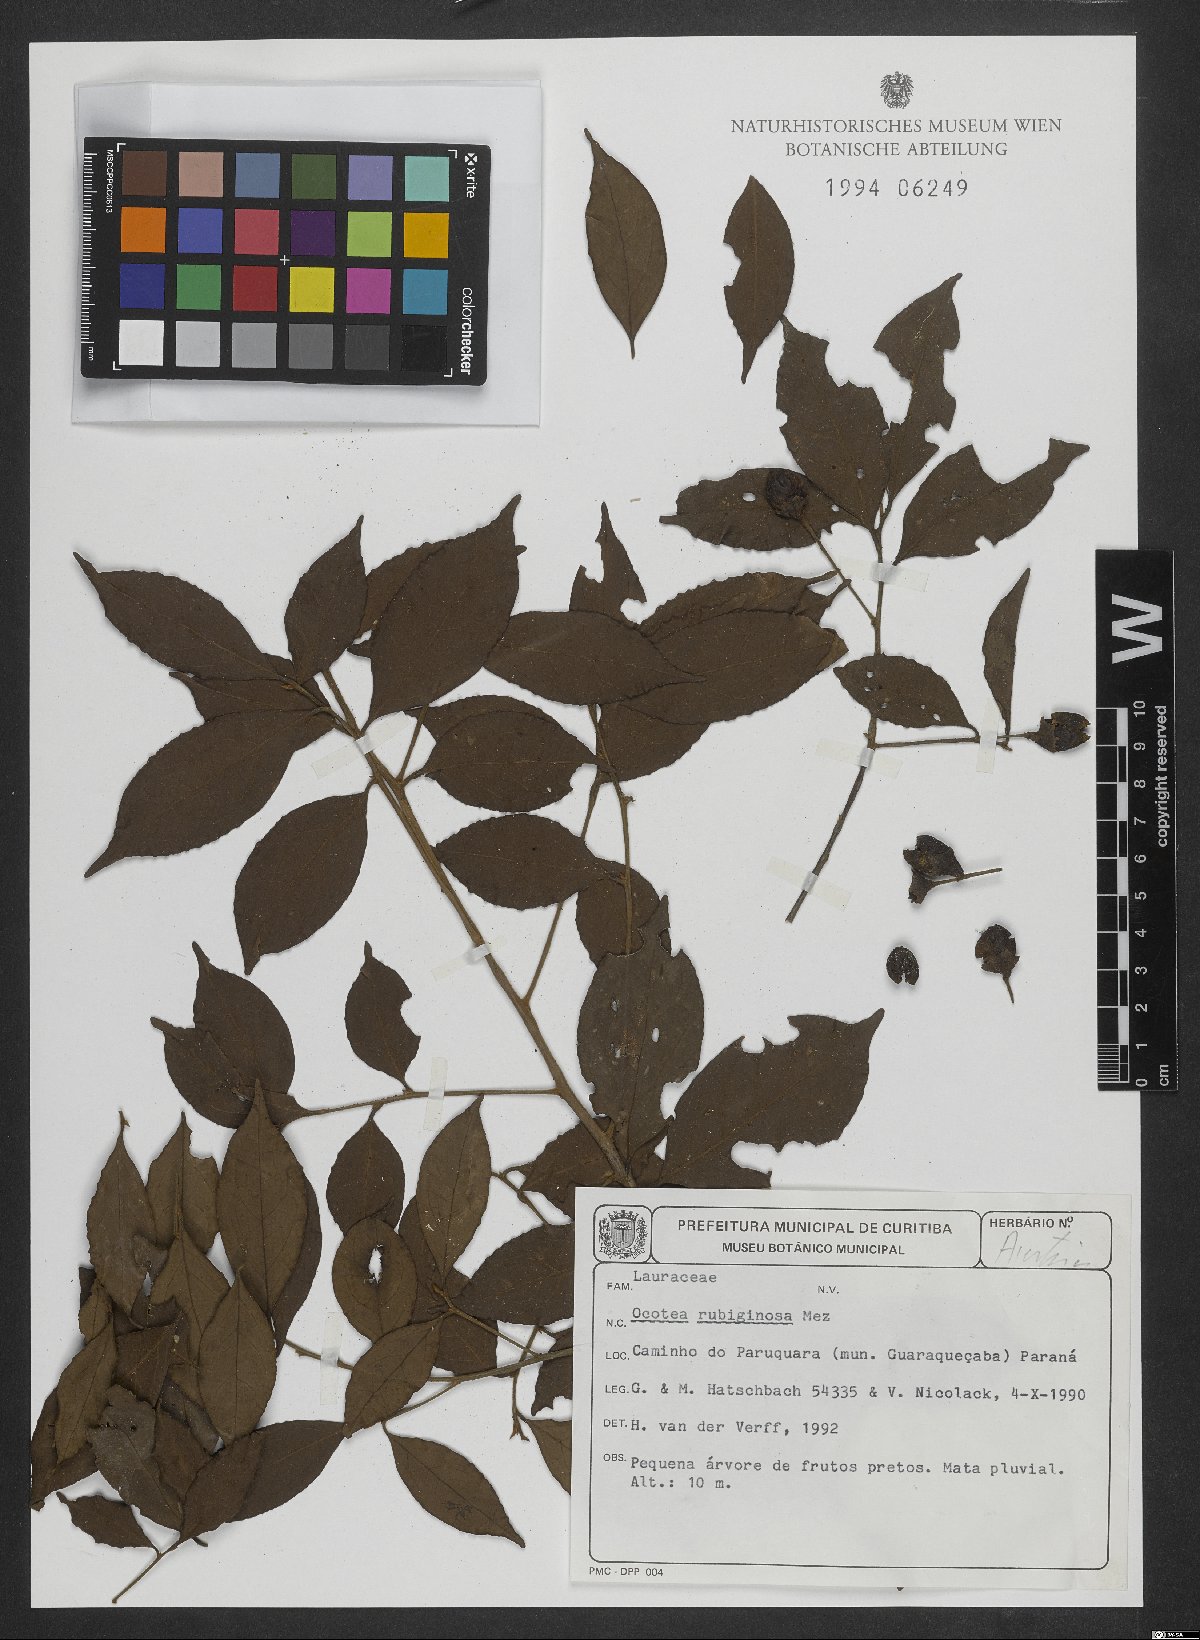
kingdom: Plantae
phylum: Tracheophyta
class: Magnoliopsida
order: Laurales
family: Lauraceae
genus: Ocotea
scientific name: Ocotea dispersa
